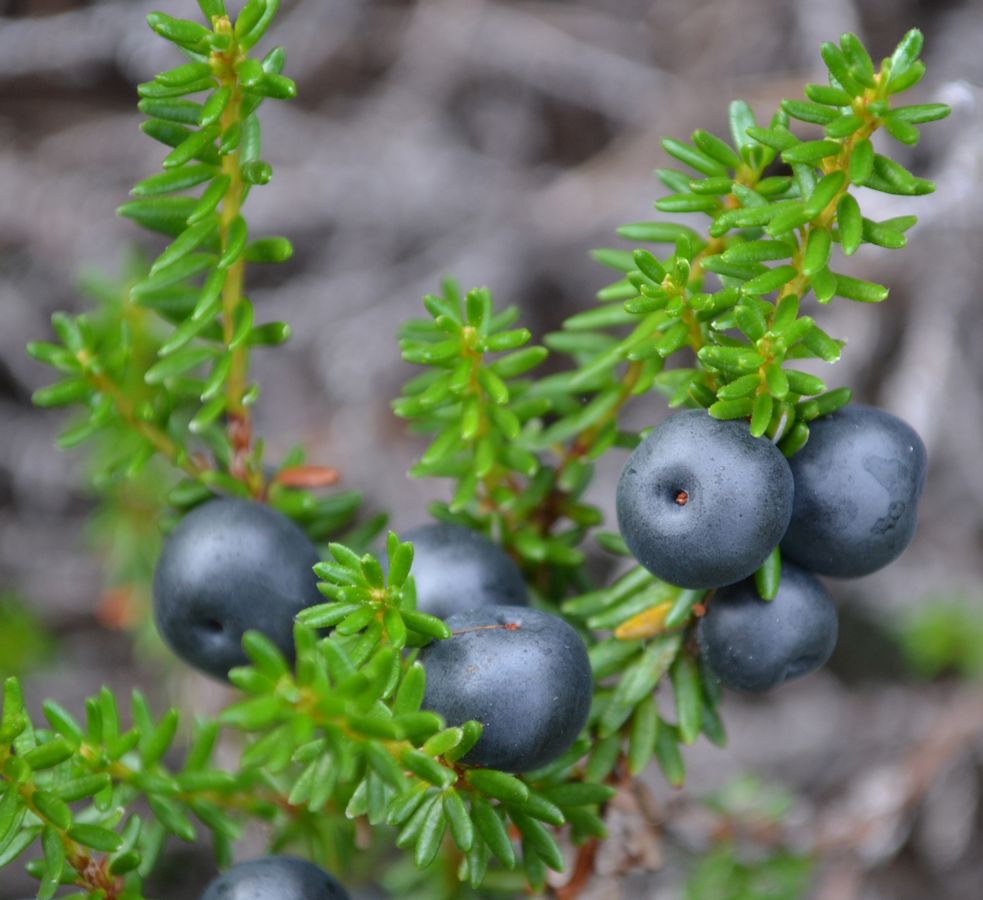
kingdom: Plantae
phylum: Tracheophyta
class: Magnoliopsida
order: Ericales
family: Ericaceae
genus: Empetrum
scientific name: Empetrum hermaphroditum
